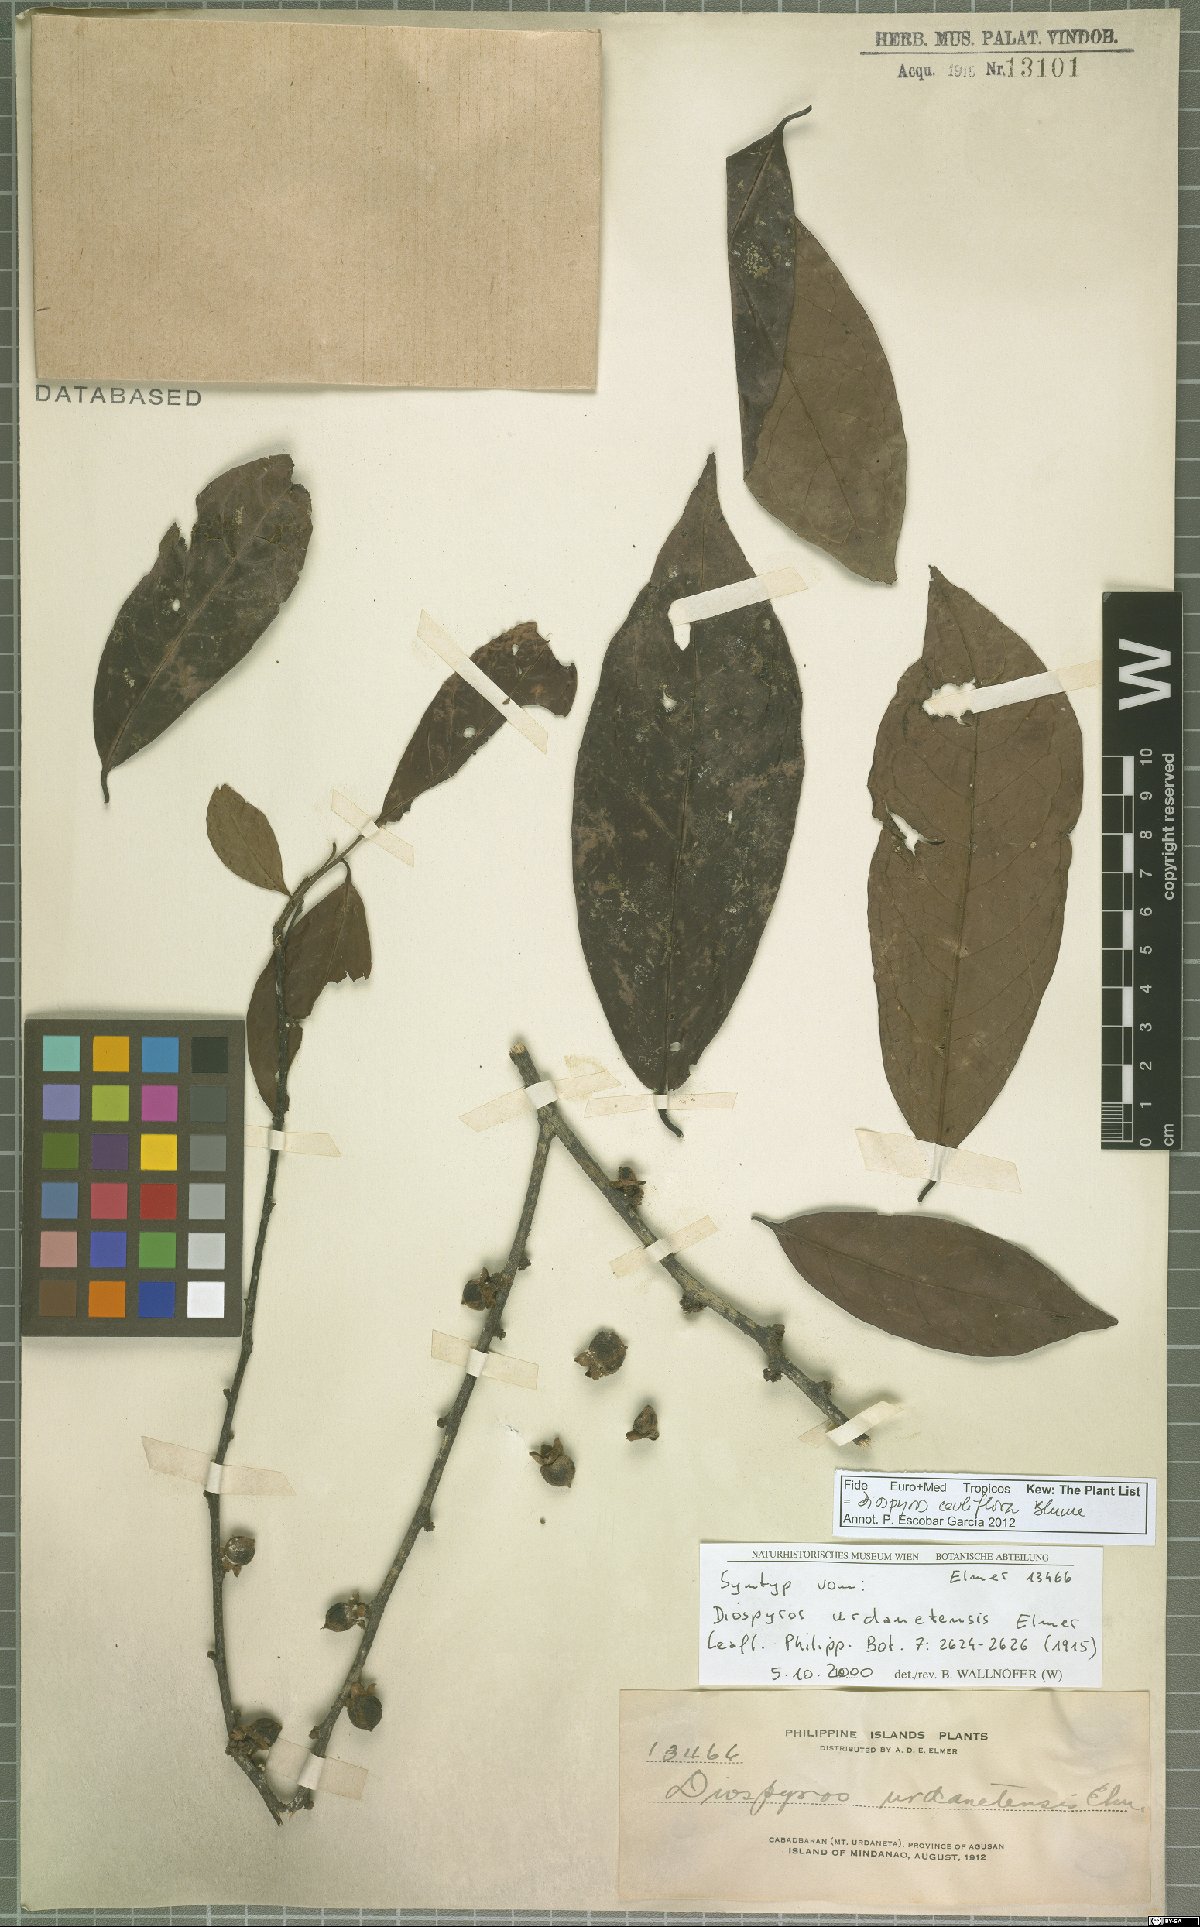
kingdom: Plantae
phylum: Tracheophyta
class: Magnoliopsida
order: Ericales
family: Ebenaceae
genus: Diospyros
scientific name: Diospyros cauliflora
